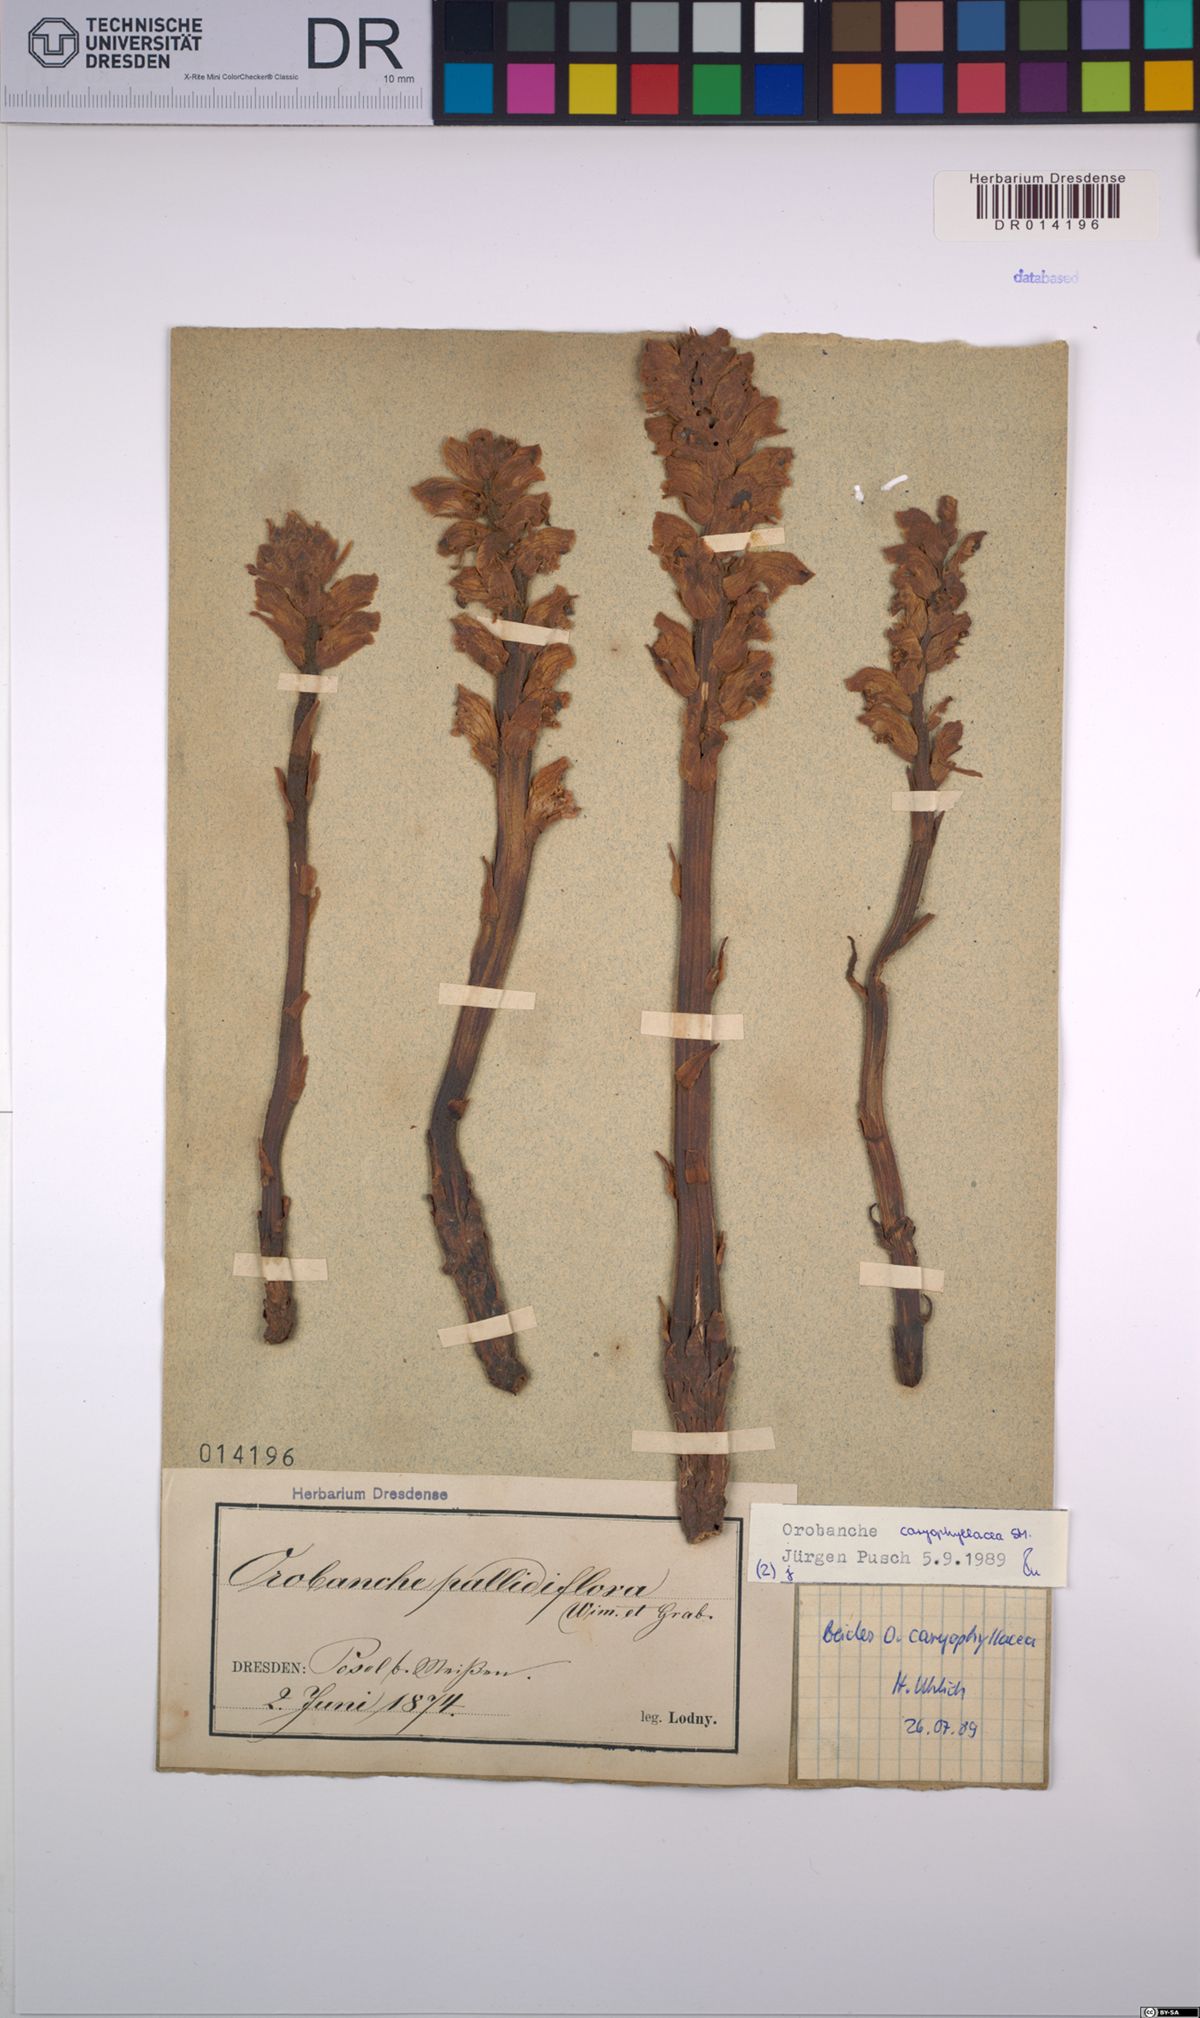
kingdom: Plantae
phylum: Tracheophyta
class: Magnoliopsida
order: Lamiales
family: Orobanchaceae
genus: Orobanche
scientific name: Orobanche caryophyllacea
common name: Bedstraw broomrape
